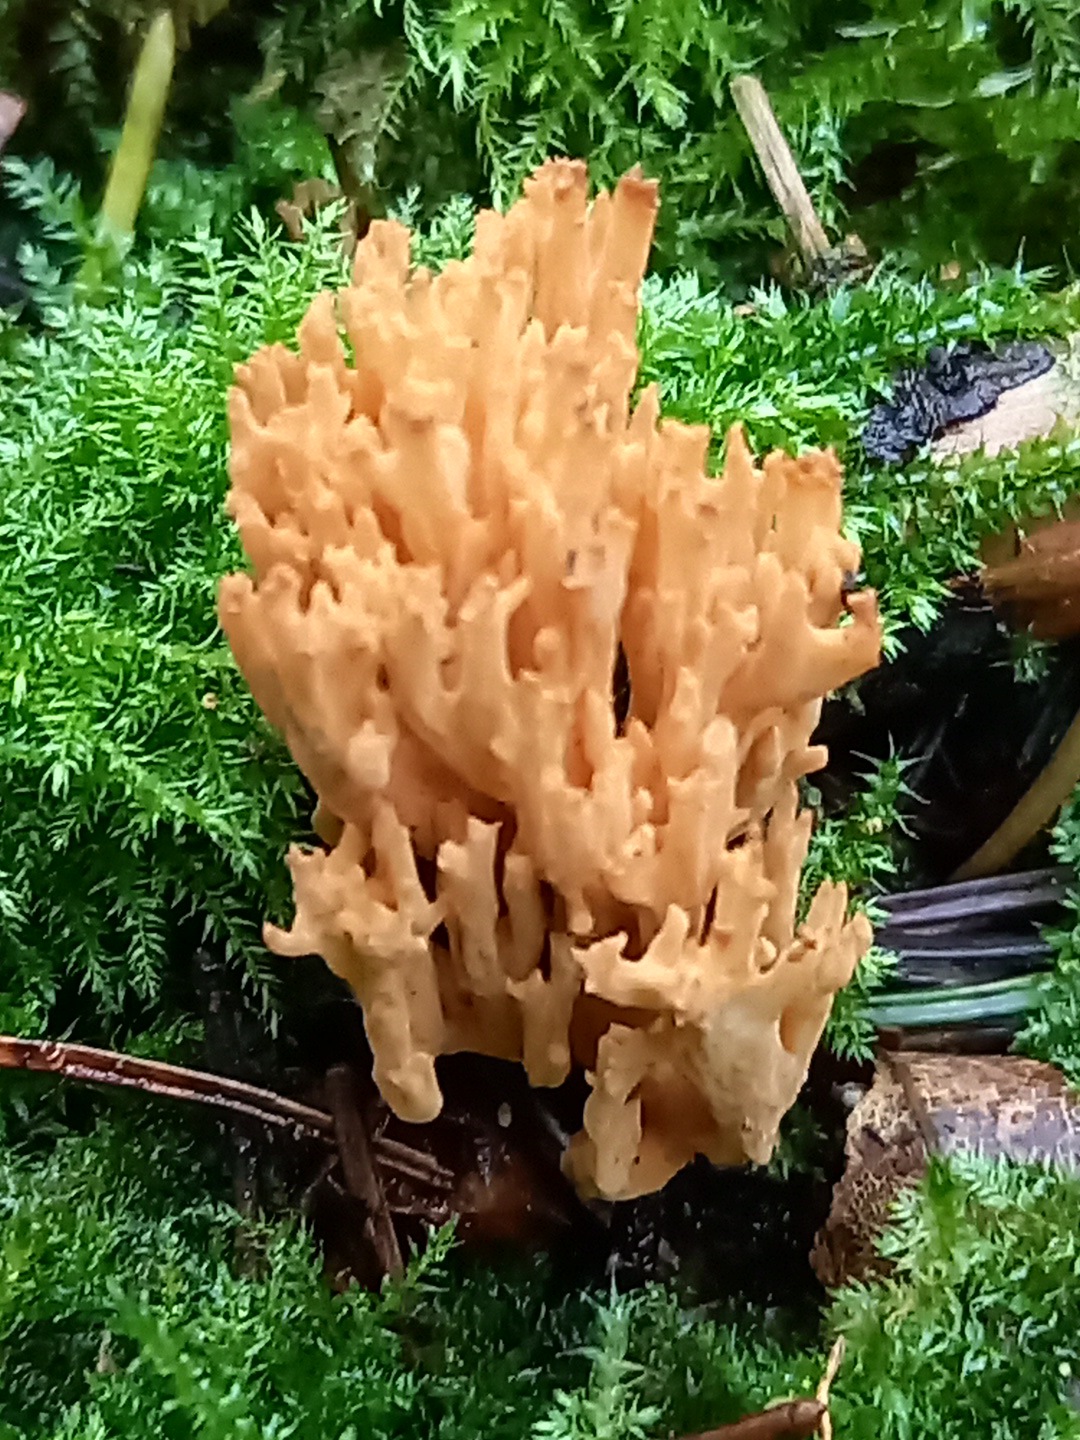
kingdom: Fungi
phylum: Basidiomycota
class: Agaricomycetes
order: Gomphales
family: Gomphaceae
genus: Phaeoclavulina
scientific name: Phaeoclavulina eumorpha
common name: gran-koralsvamp
